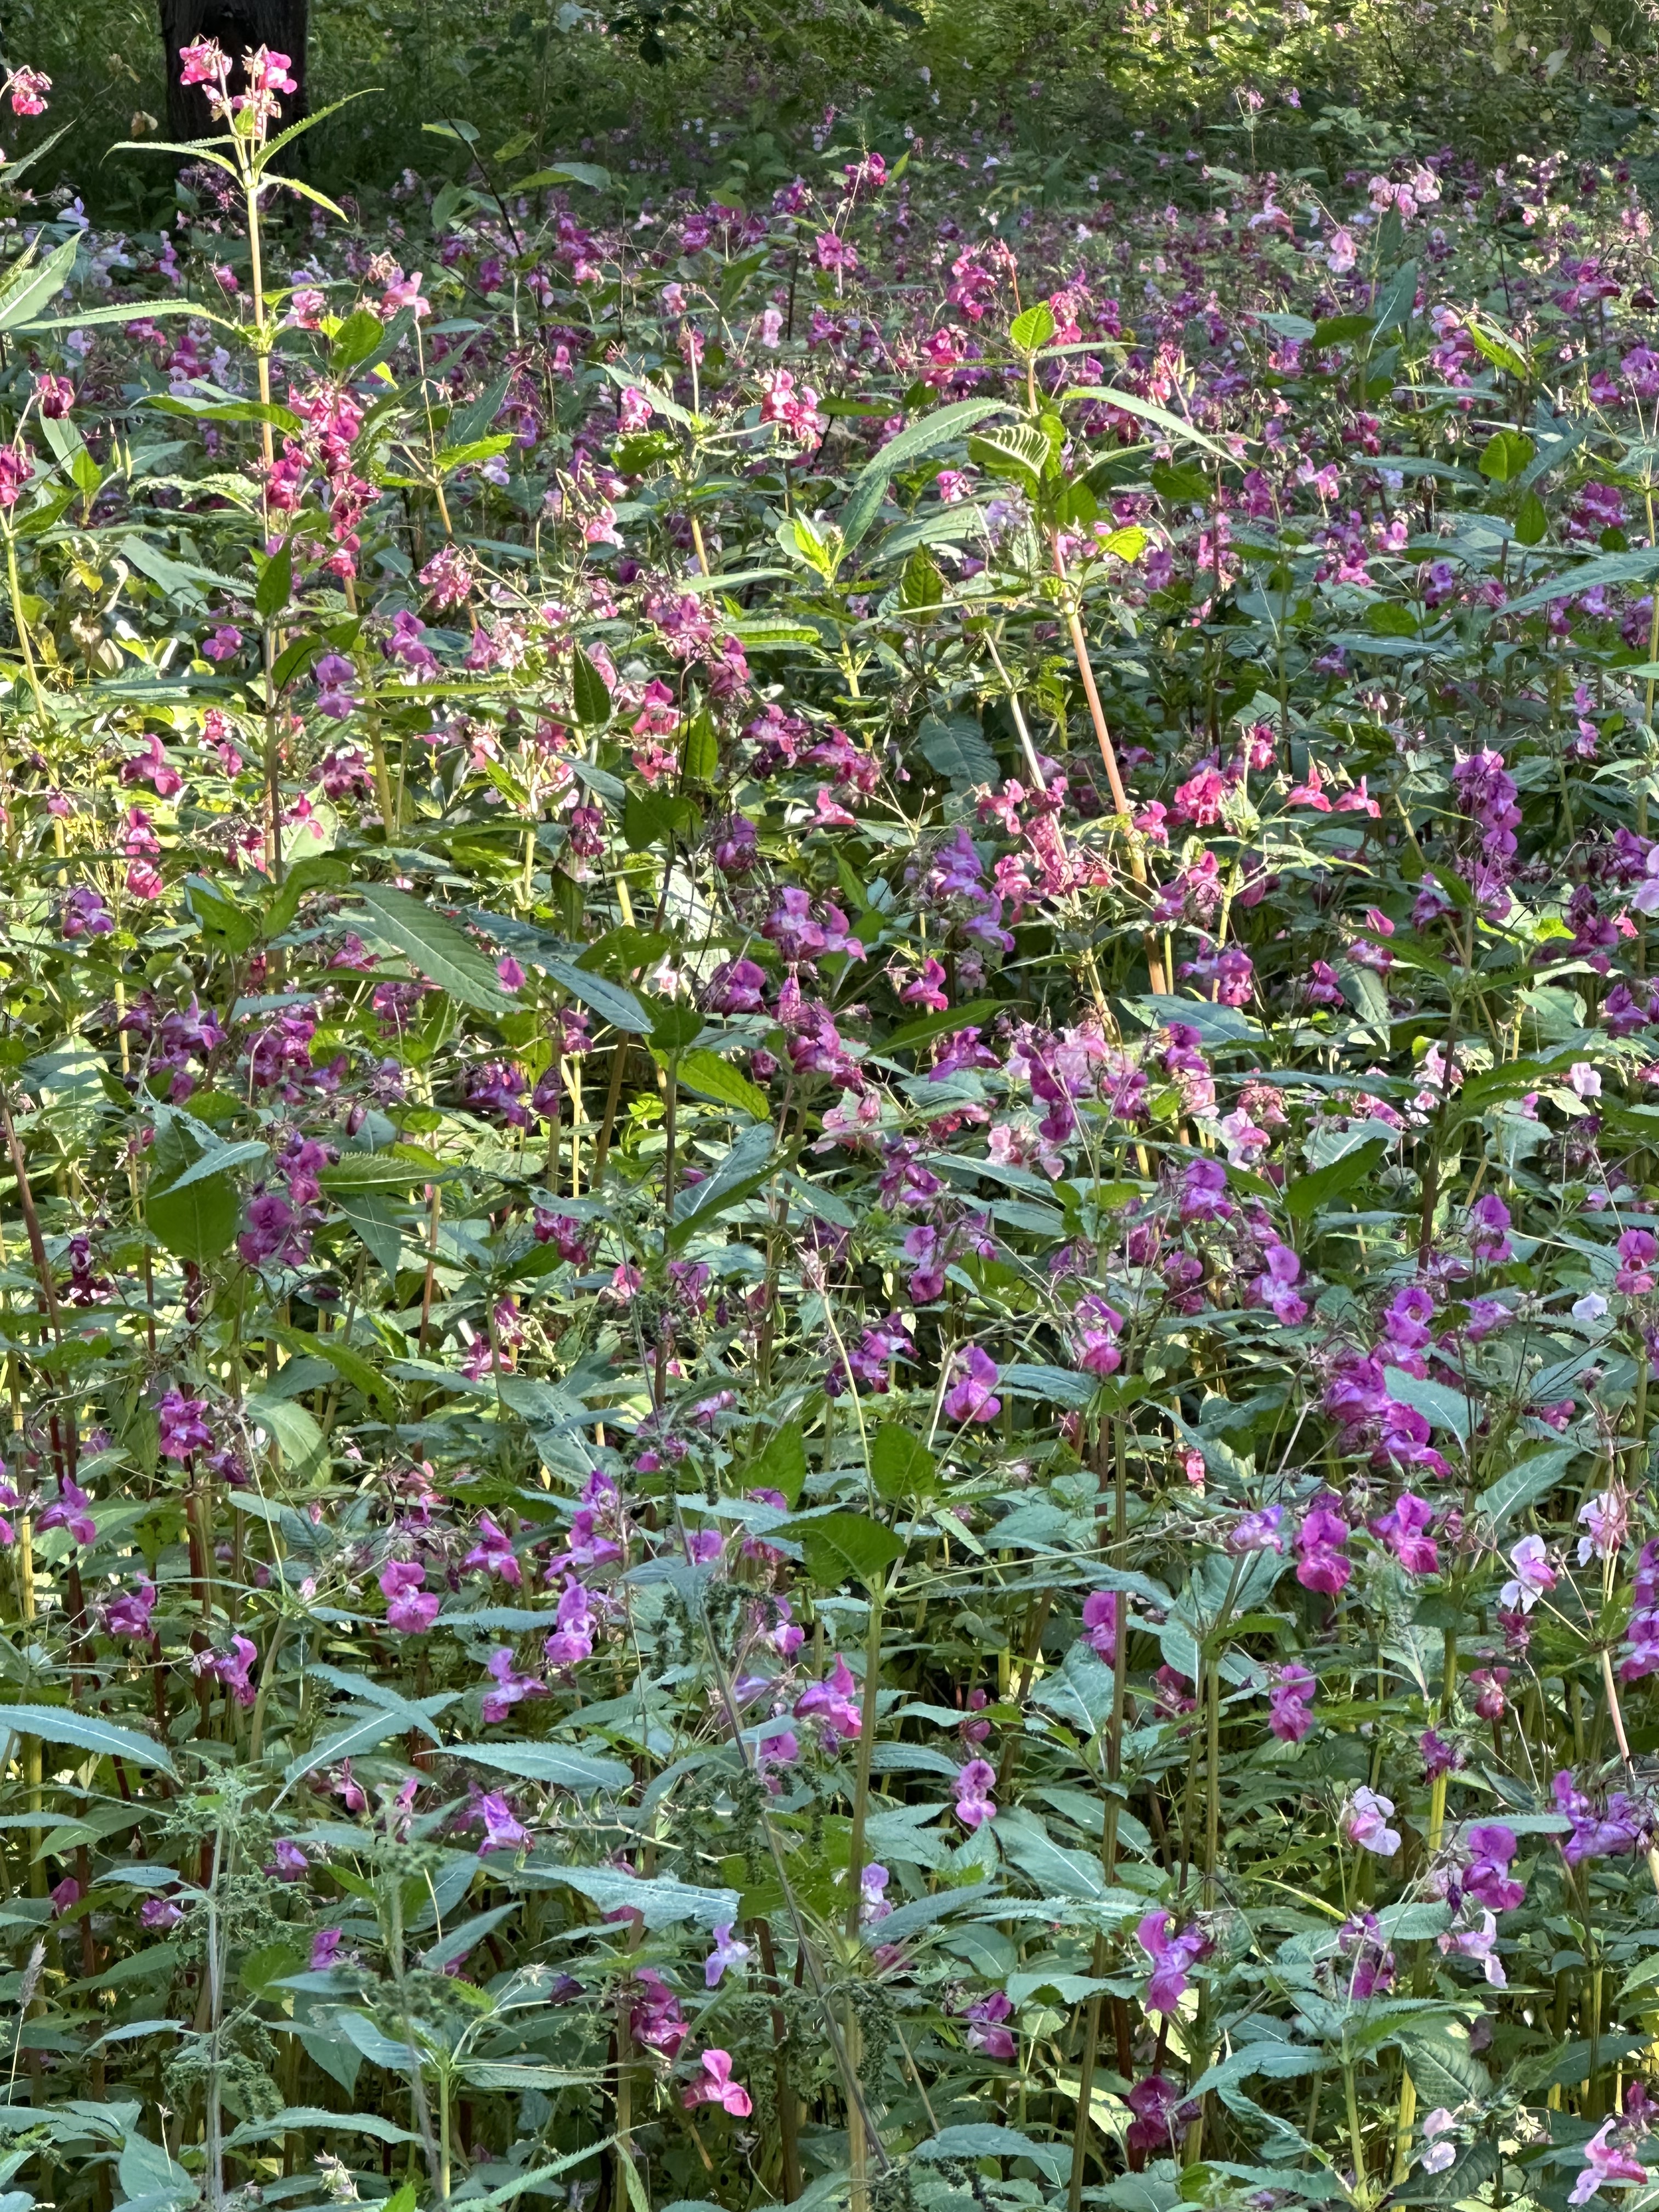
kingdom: Plantae
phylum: Tracheophyta
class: Magnoliopsida
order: Ericales
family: Balsaminaceae
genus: Impatiens
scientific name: Impatiens glandulifera
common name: Himalayan balsam
